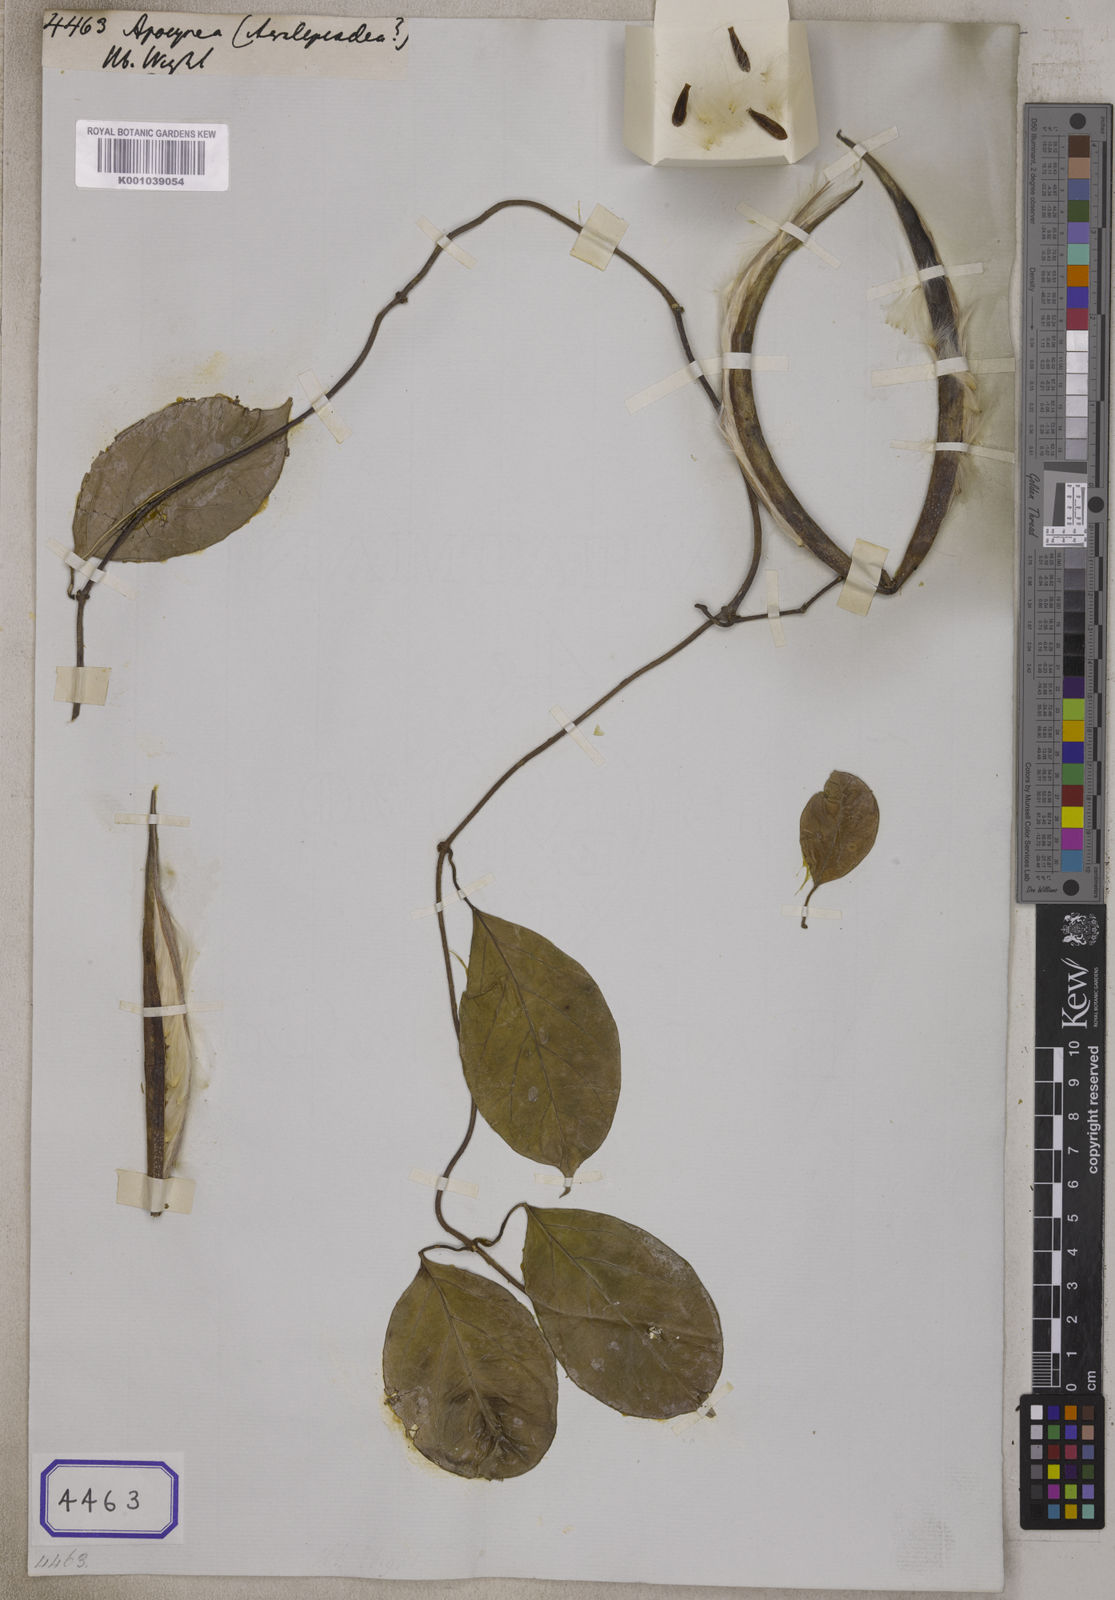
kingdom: Plantae
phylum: Tracheophyta
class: Magnoliopsida
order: Gentianales
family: Apocynaceae
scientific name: Apocynaceae
